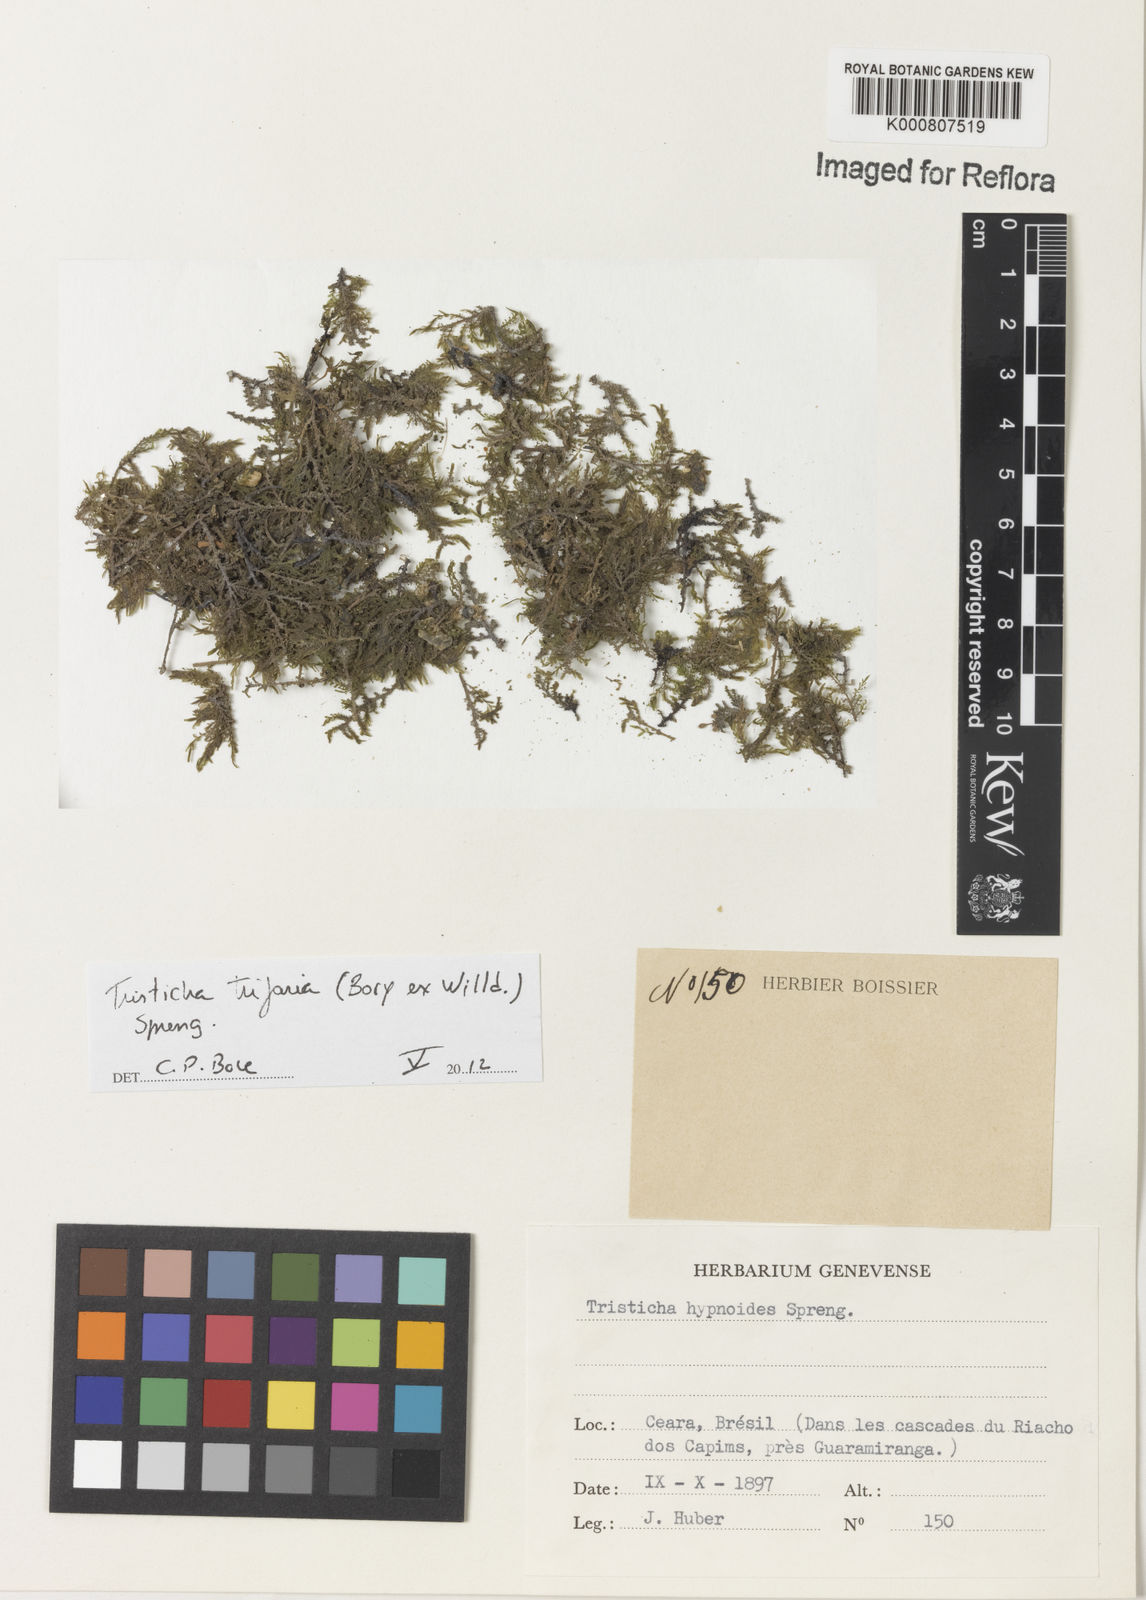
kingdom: Plantae
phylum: Tracheophyta
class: Magnoliopsida
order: Malpighiales
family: Podostemaceae
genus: Tristicha
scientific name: Tristicha trifaria
